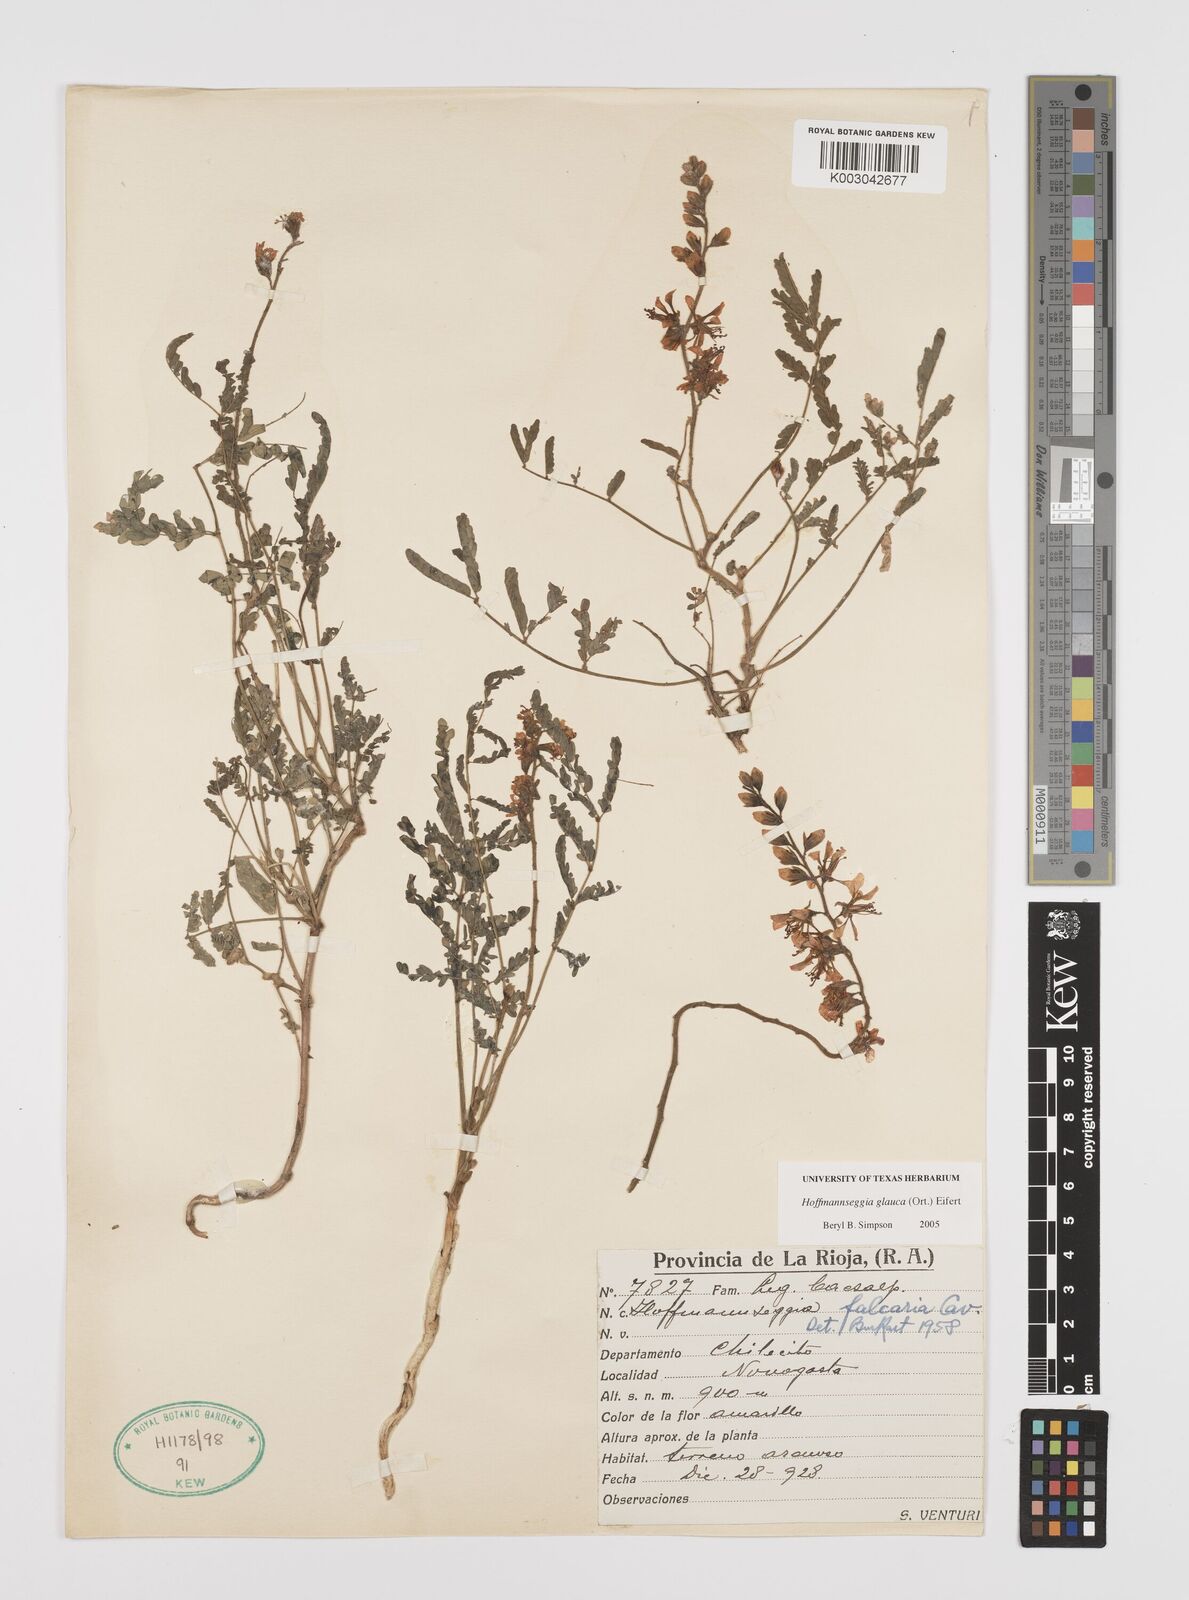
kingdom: Plantae
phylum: Tracheophyta
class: Magnoliopsida
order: Fabales
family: Fabaceae
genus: Hoffmannseggia
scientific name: Hoffmannseggia glauca
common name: Pignut
